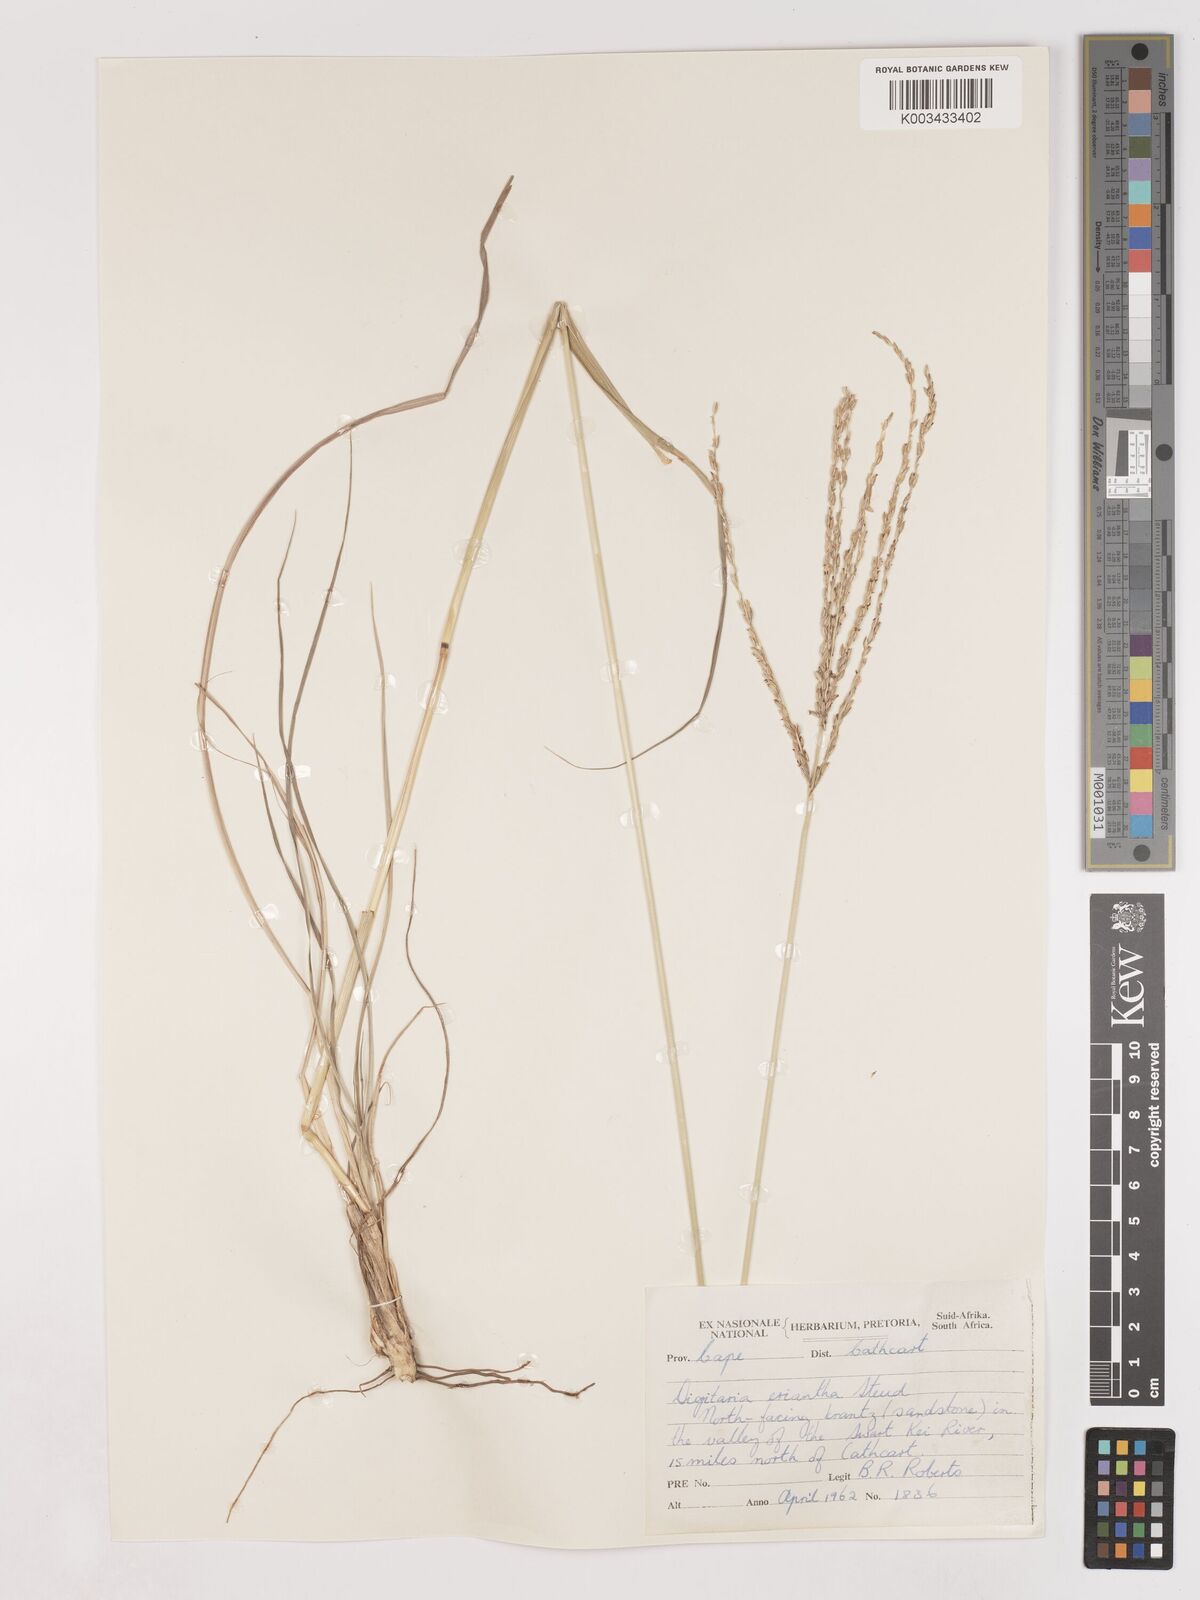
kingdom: Plantae
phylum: Tracheophyta
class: Liliopsida
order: Poales
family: Poaceae
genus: Digitaria
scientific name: Digitaria eriantha
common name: Digitgrass
